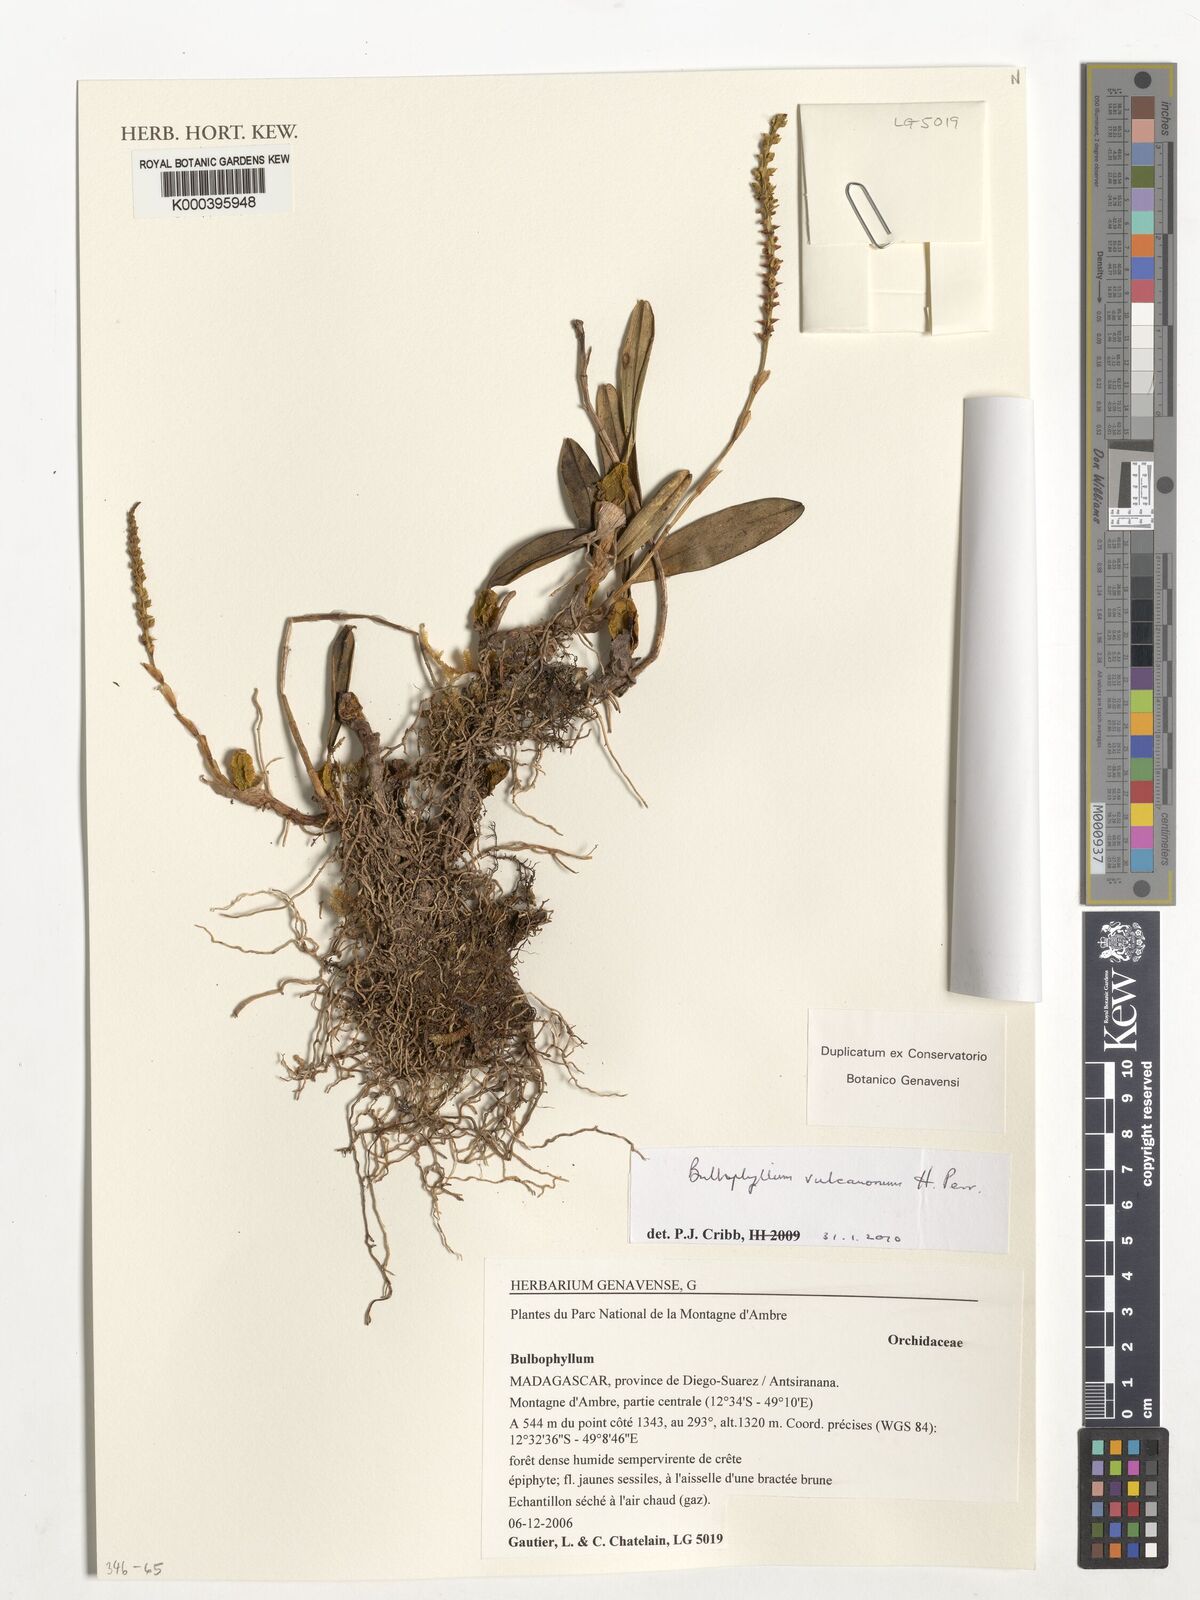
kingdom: Plantae
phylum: Tracheophyta
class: Liliopsida
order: Asparagales
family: Orchidaceae
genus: Bulbophyllum
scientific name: Bulbophyllum vulcanorum
